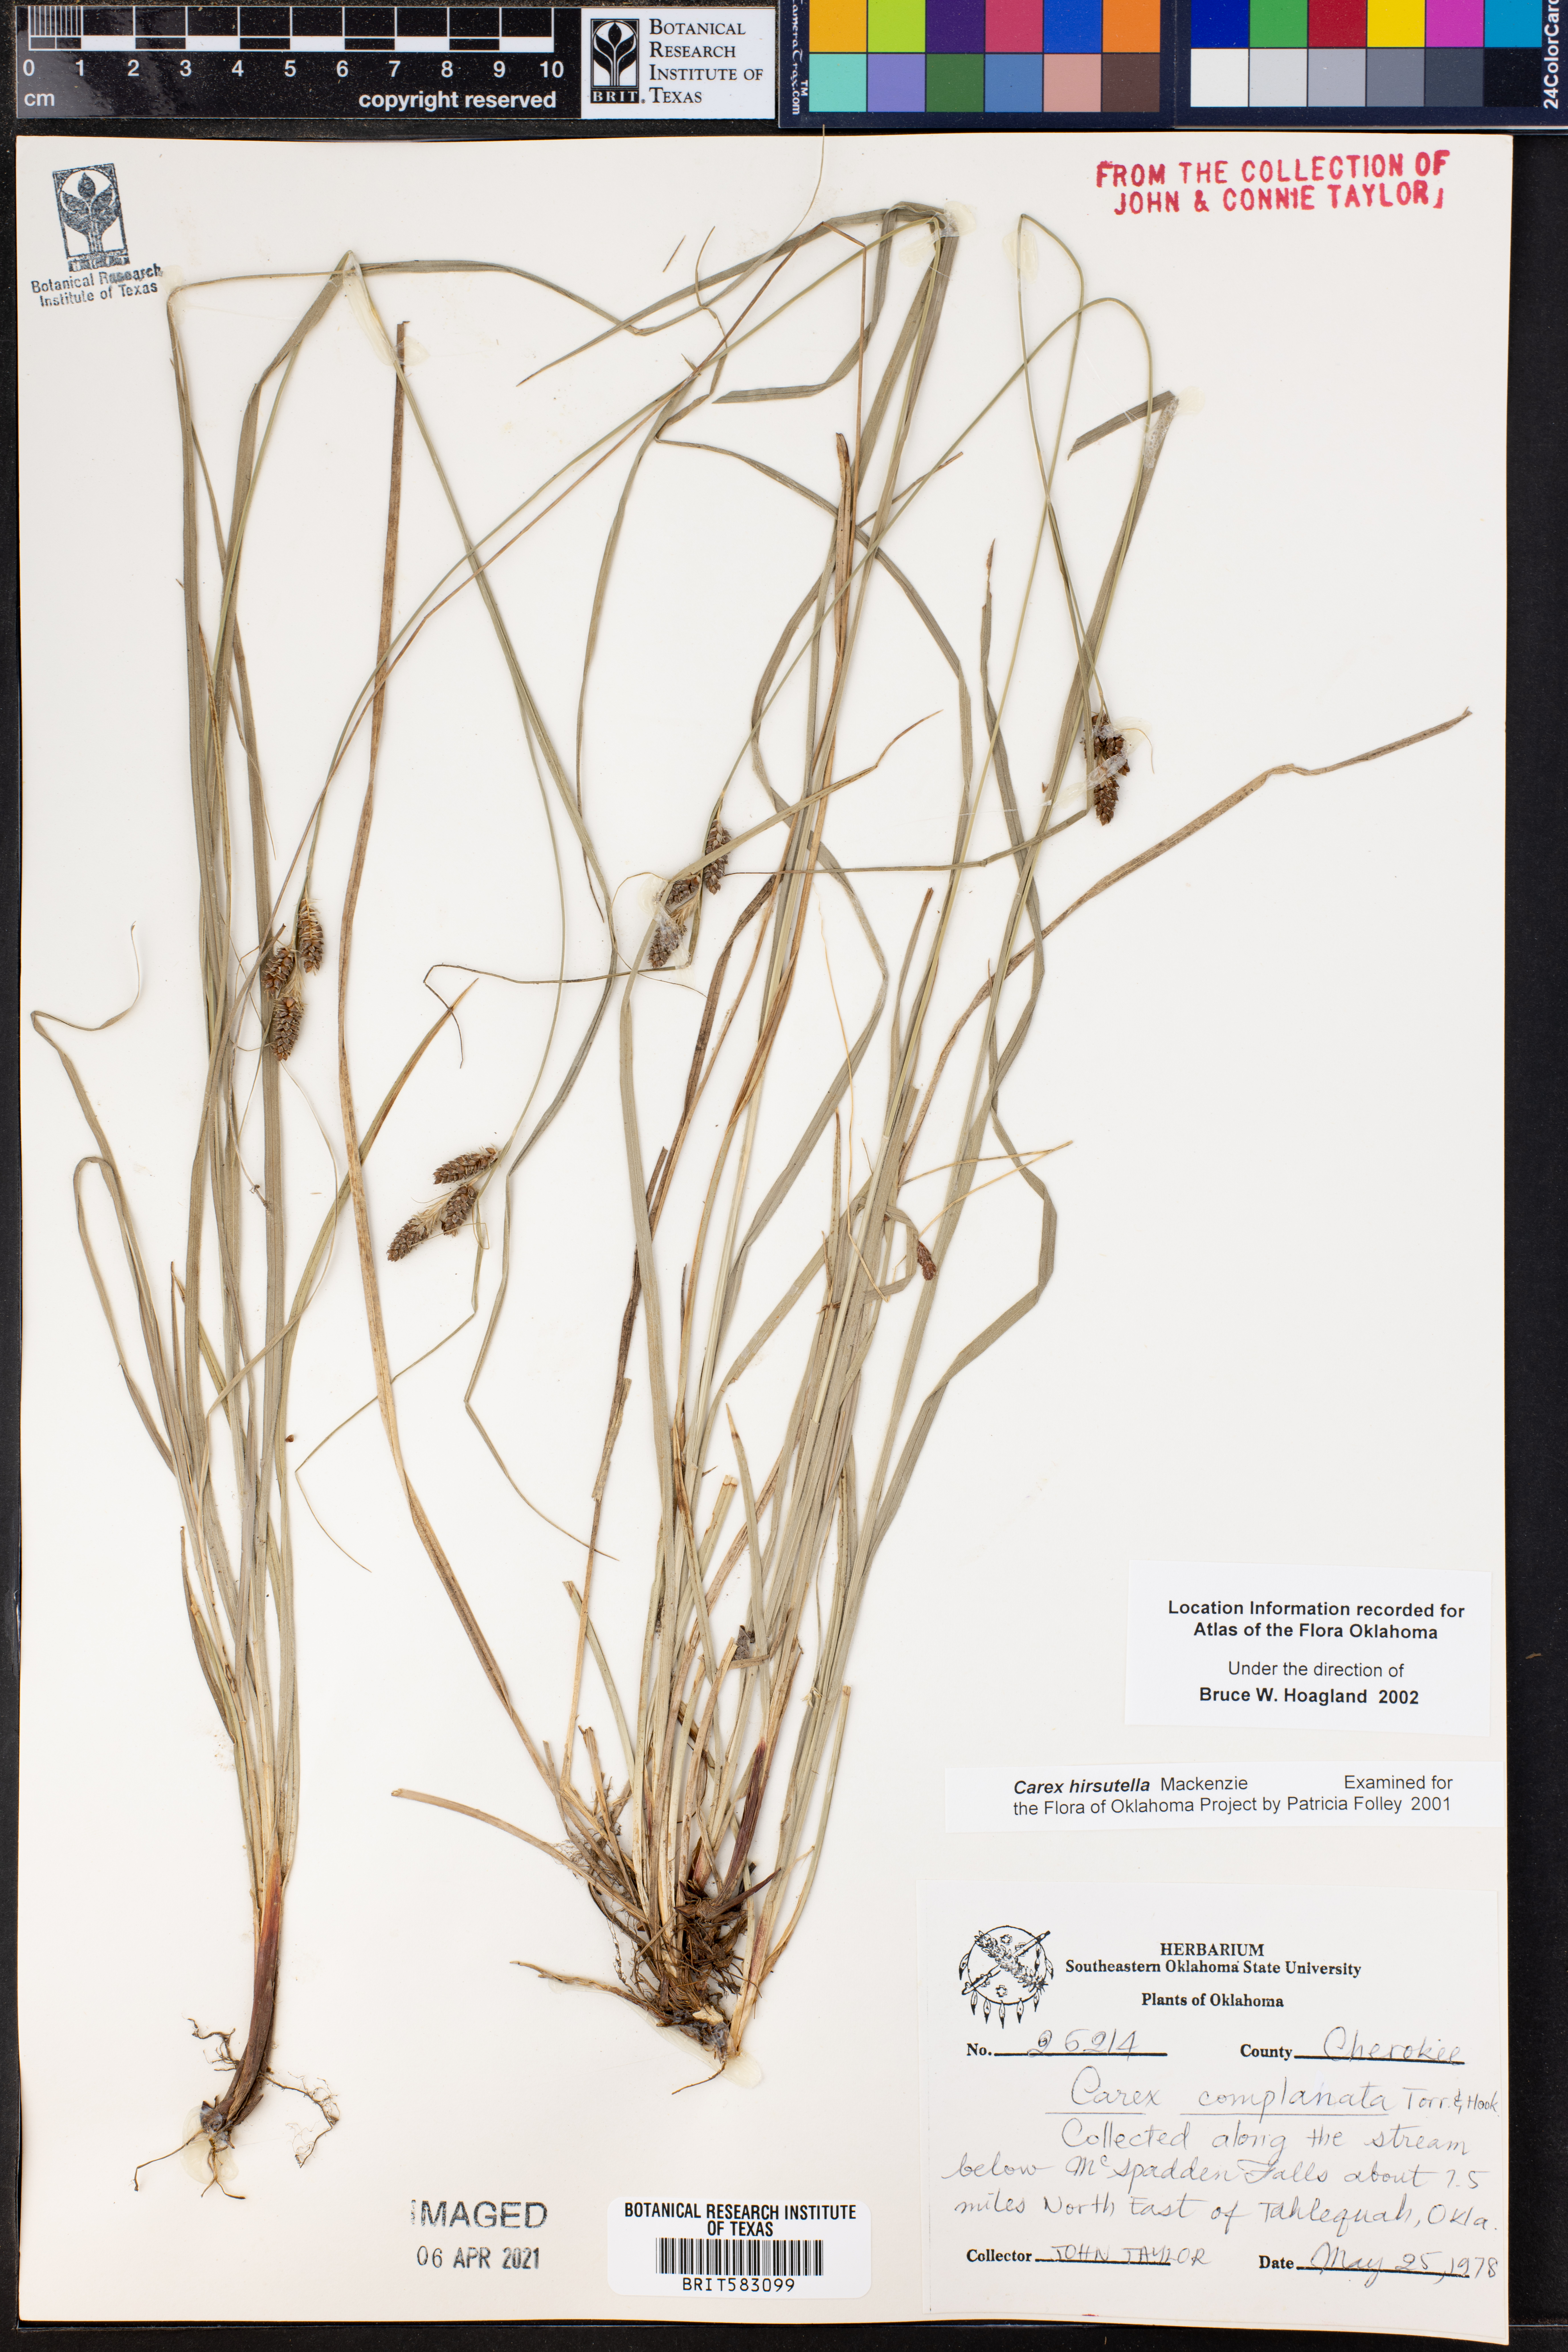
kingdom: Plantae
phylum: Tracheophyta
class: Liliopsida
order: Poales
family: Cyperaceae
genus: Carex
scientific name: Carex hirsutella
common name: Fuzzy wuzzy sedge
